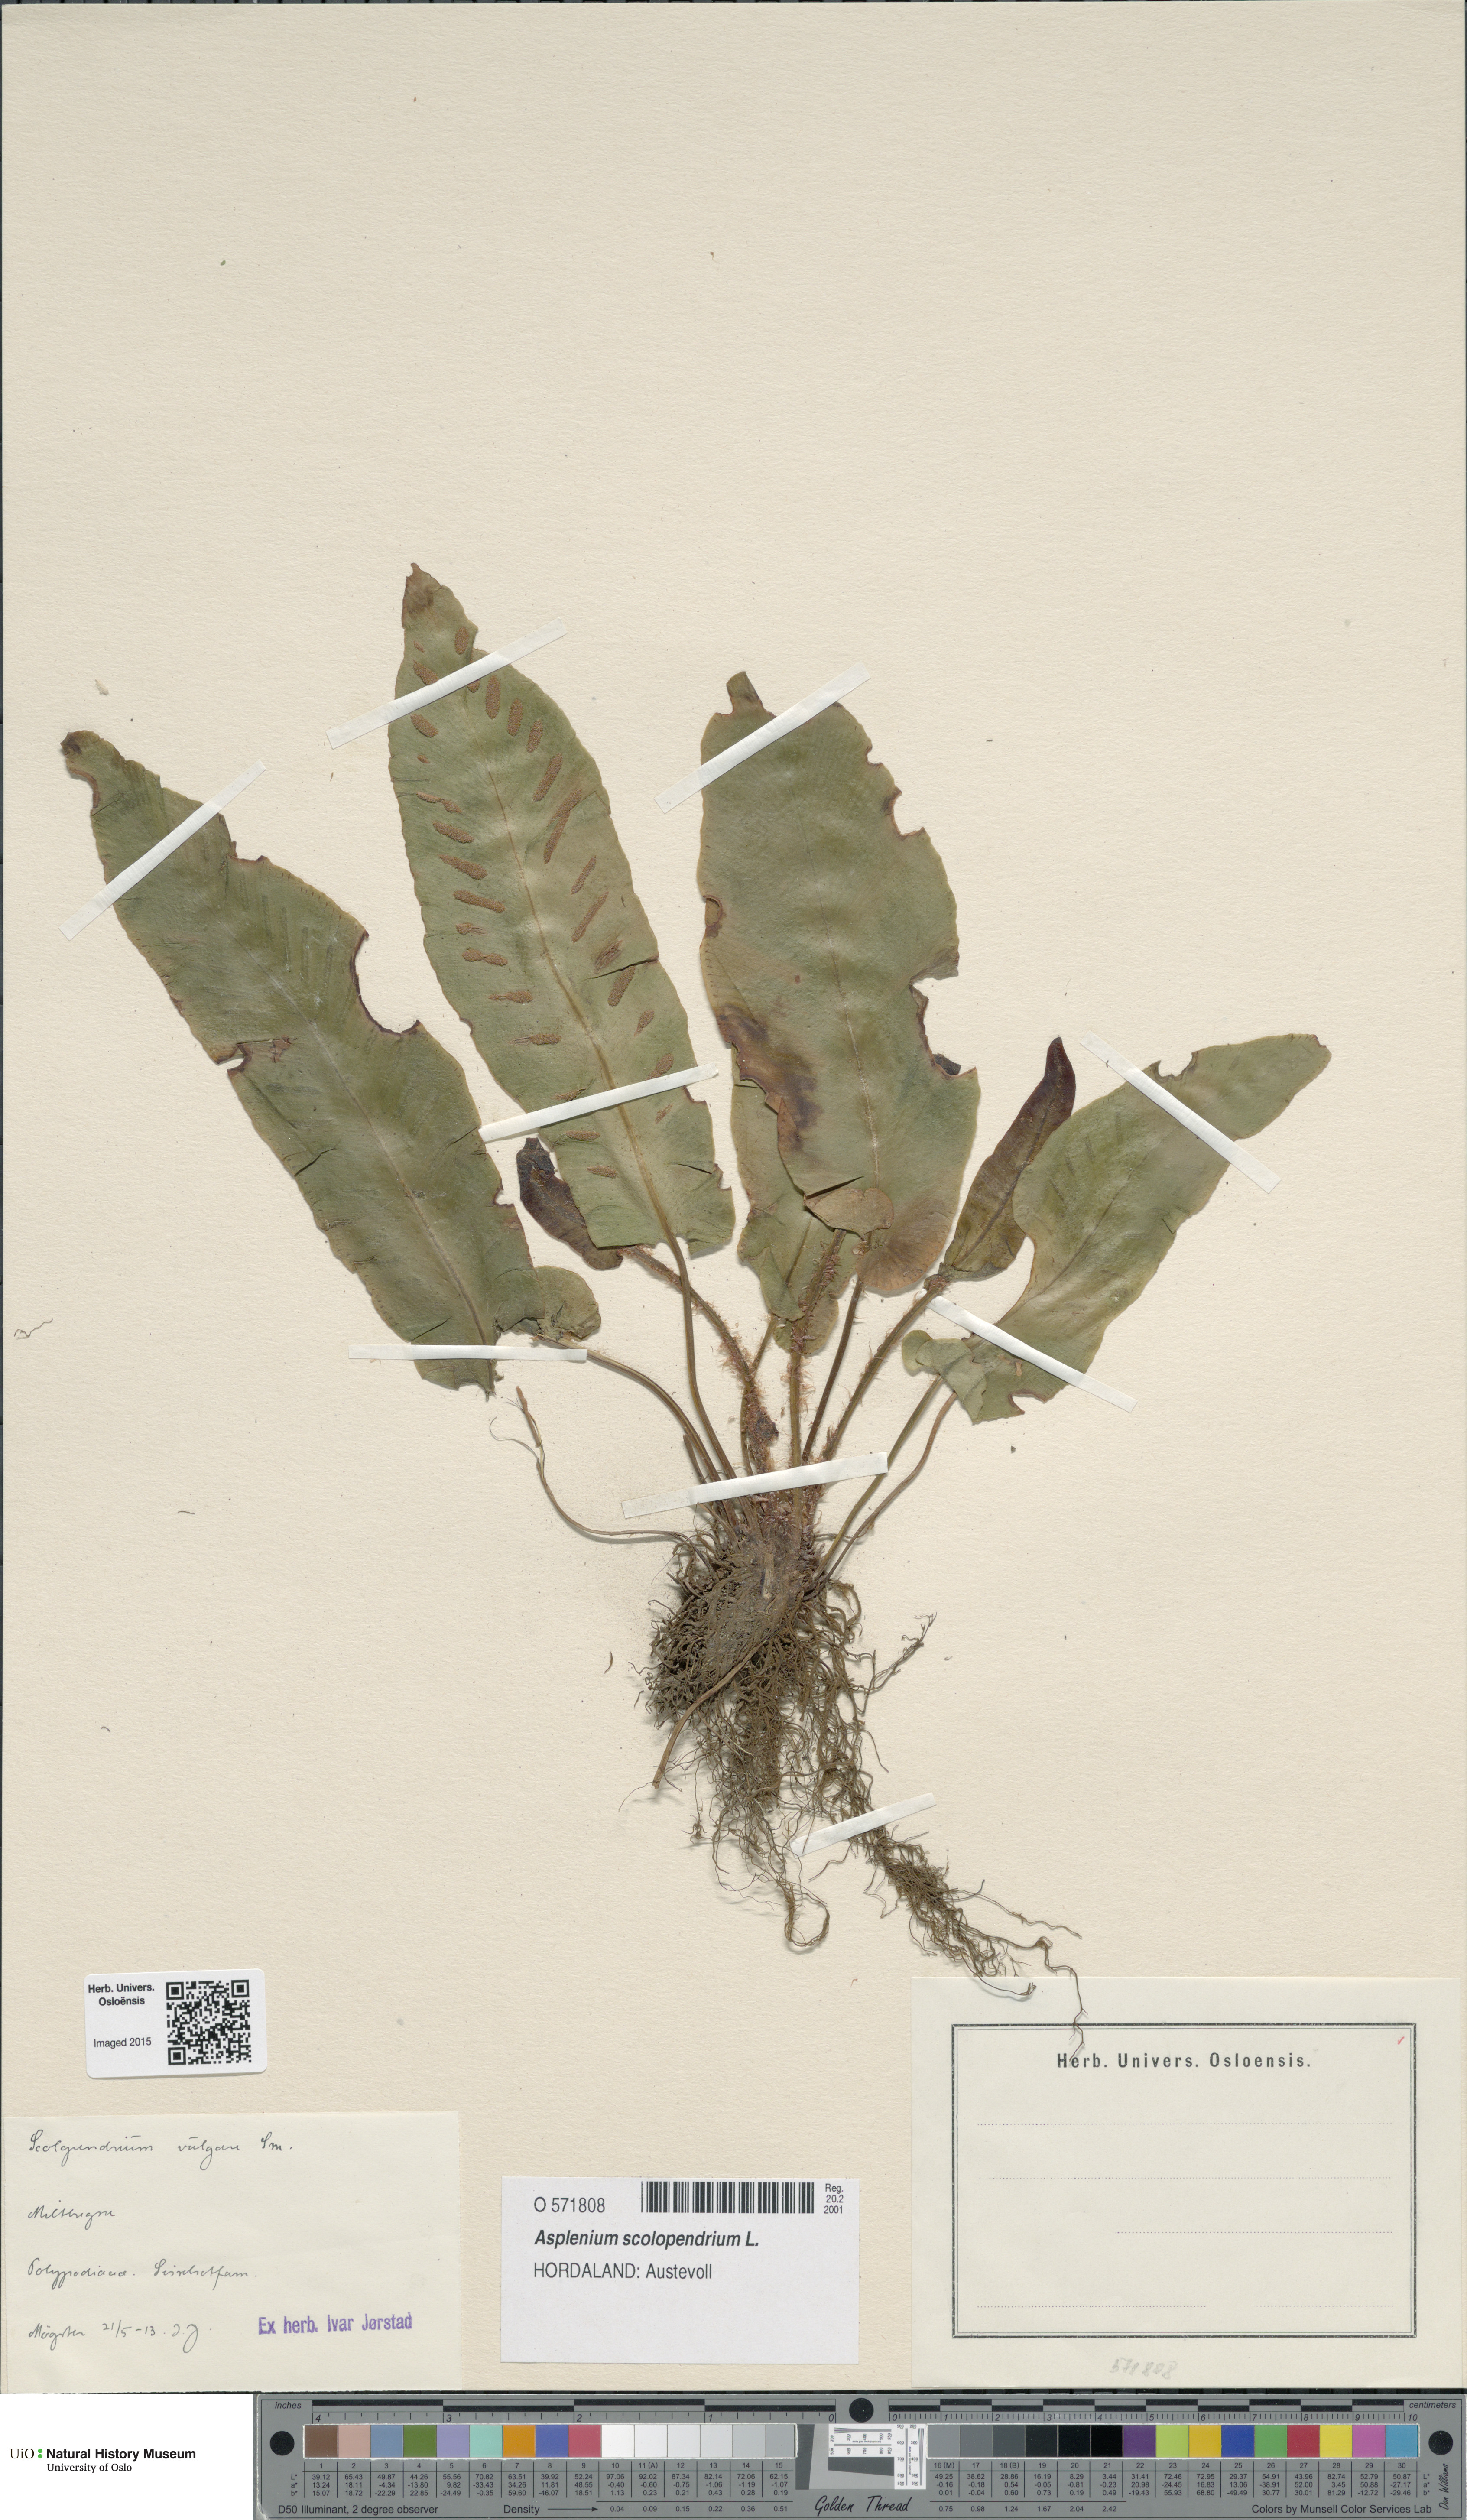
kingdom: Plantae
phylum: Tracheophyta
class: Polypodiopsida
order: Polypodiales
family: Aspleniaceae
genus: Asplenium
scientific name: Asplenium scolopendrium
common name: Hart's-tongue fern
